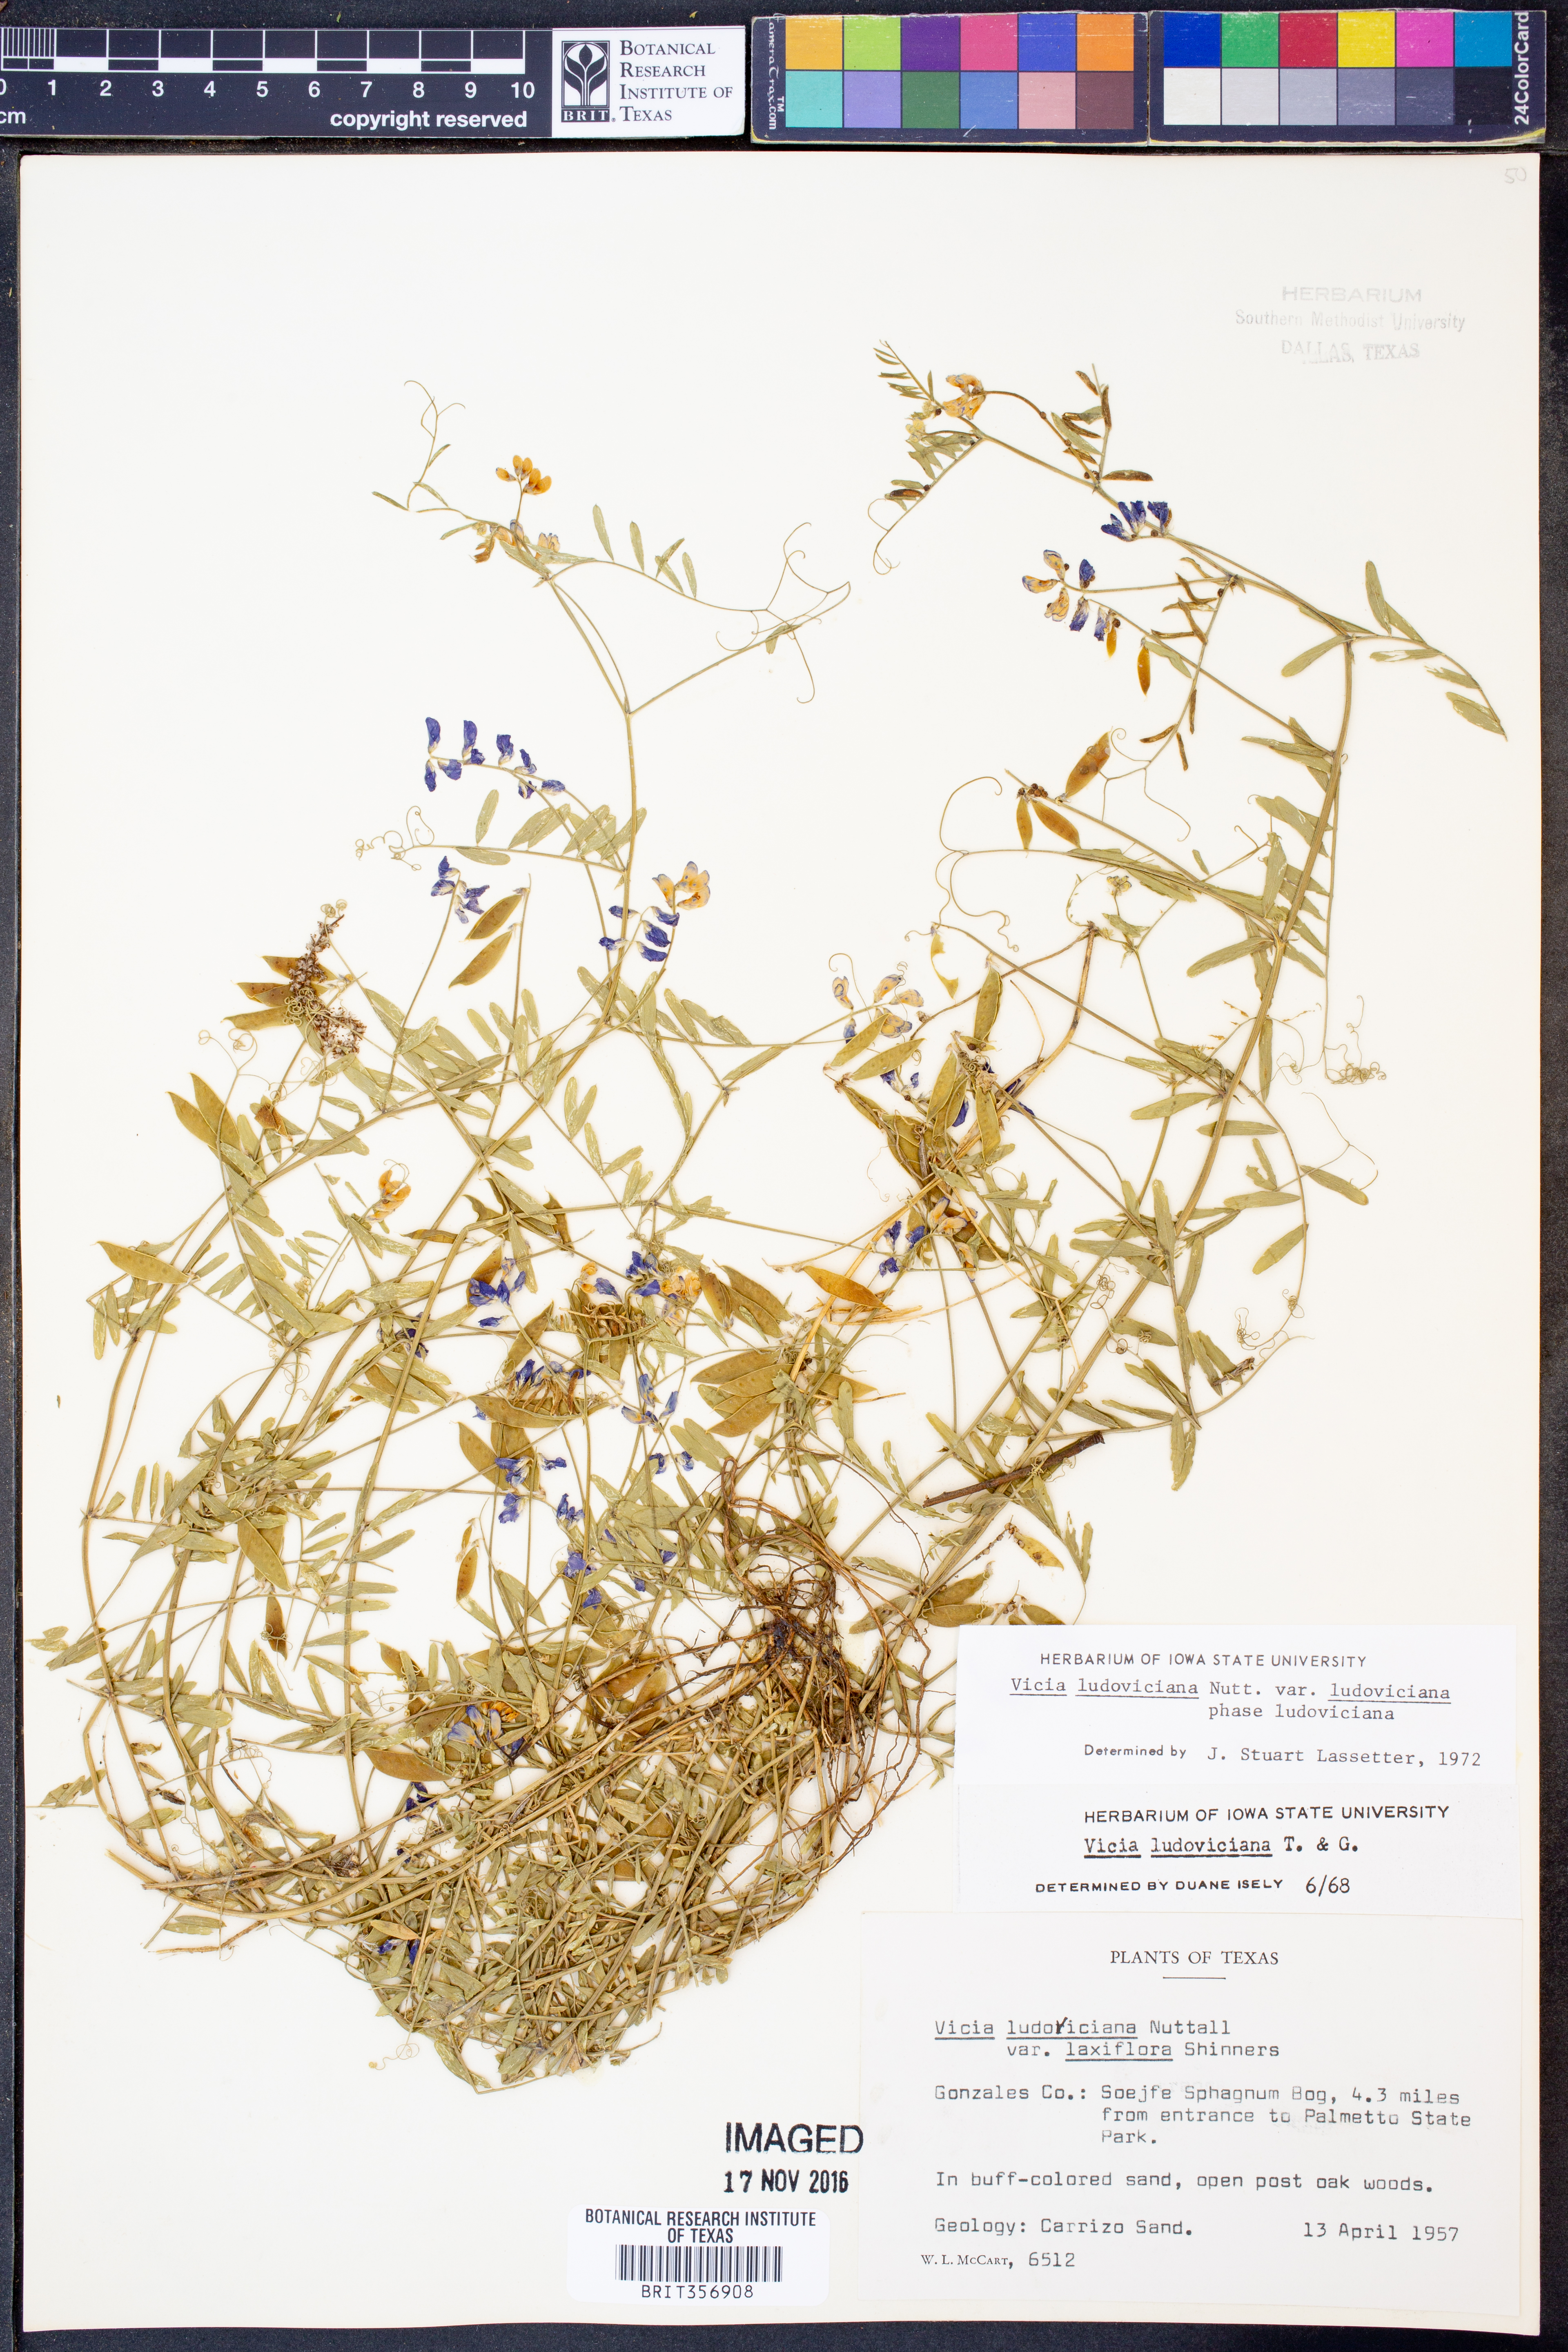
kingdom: Plantae
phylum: Tracheophyta
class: Magnoliopsida
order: Fabales
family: Fabaceae
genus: Vicia
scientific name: Vicia ludoviciana
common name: Louisiana vetch
